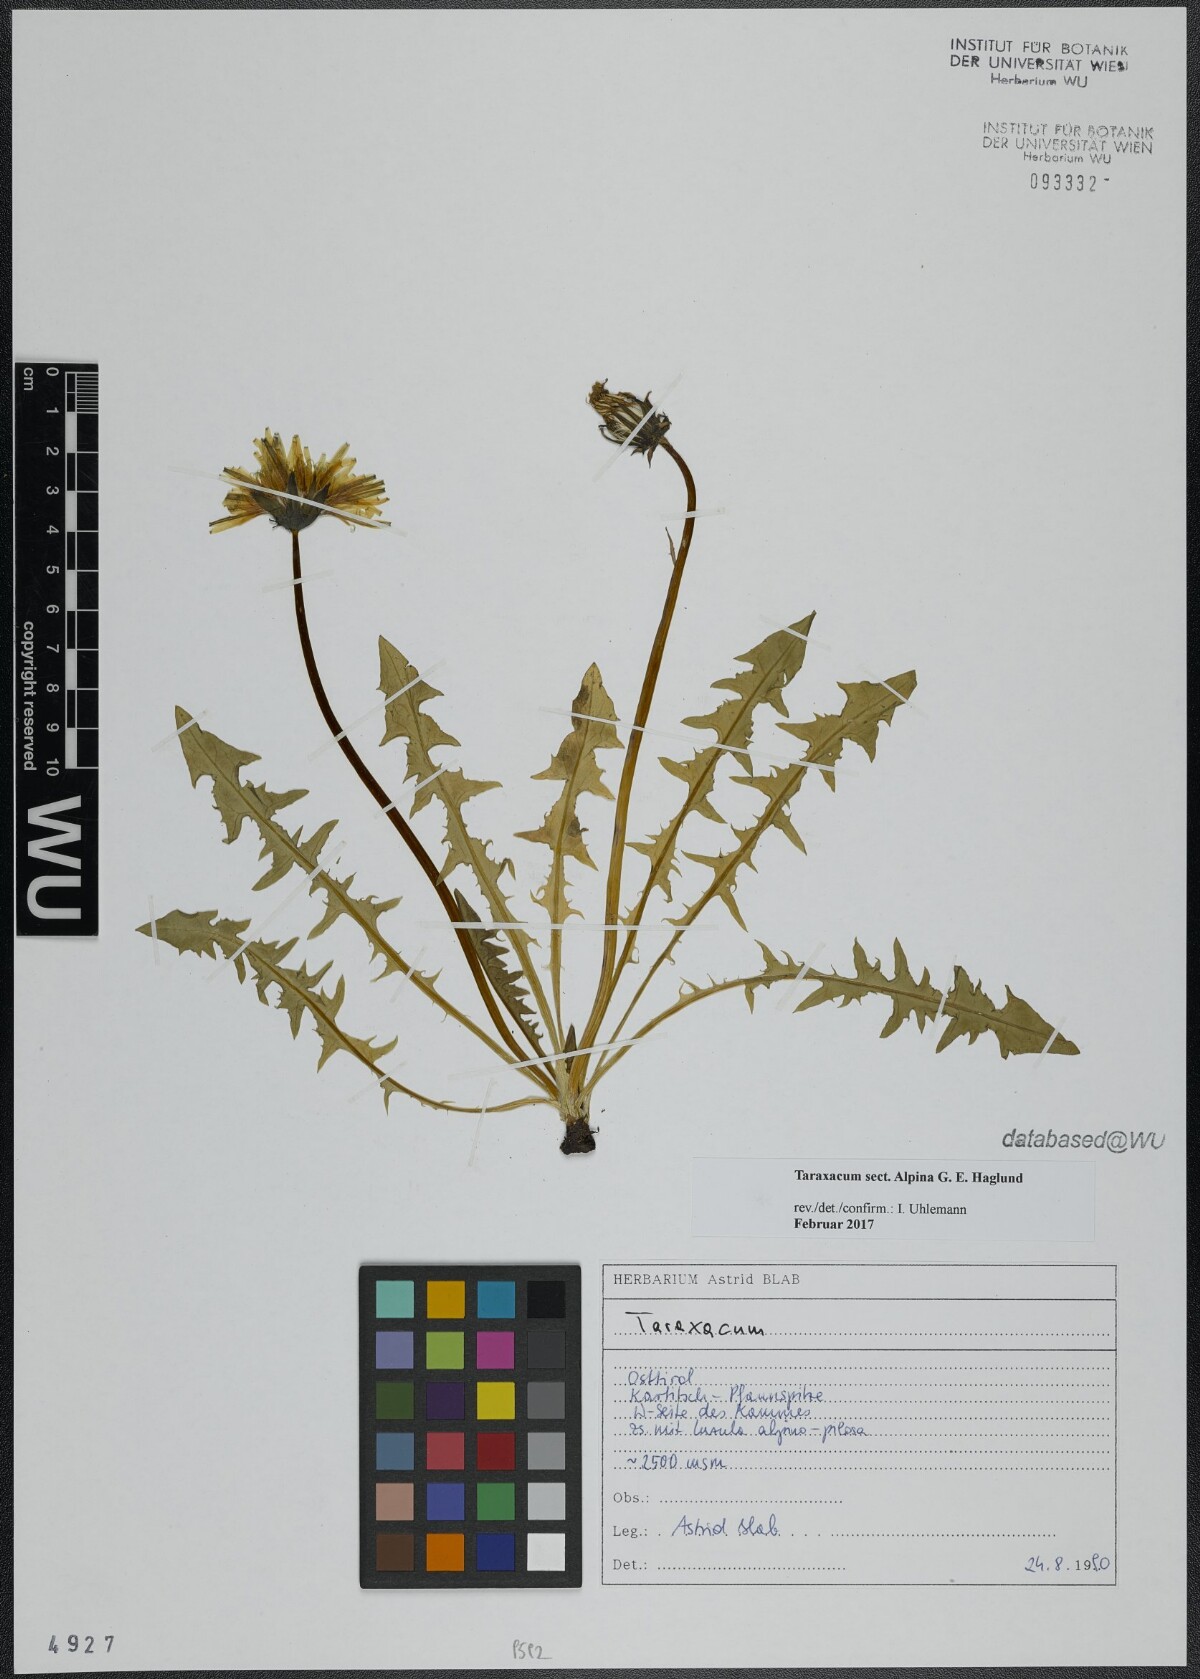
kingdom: Plantae
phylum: Tracheophyta
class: Magnoliopsida
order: Asterales
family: Asteraceae
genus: Taraxacum
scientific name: Taraxacum
